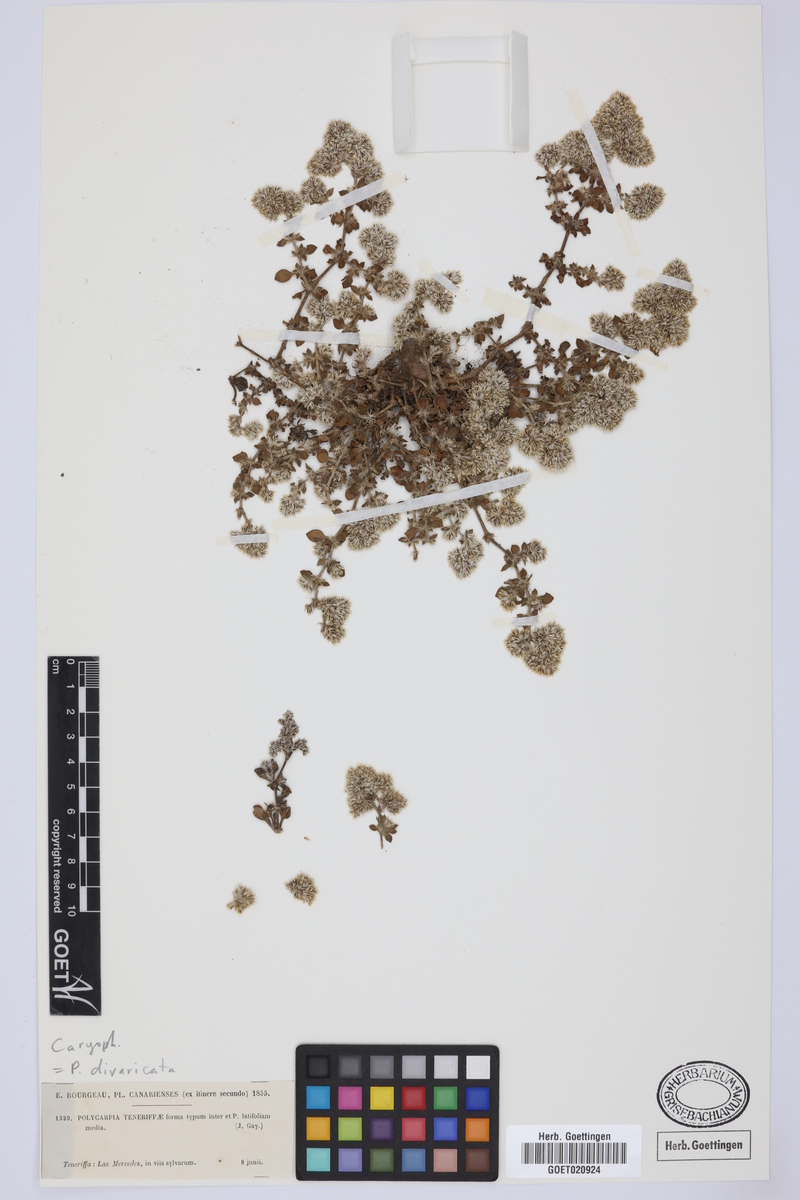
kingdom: Plantae
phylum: Tracheophyta
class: Magnoliopsida
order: Caryophyllales
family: Caryophyllaceae
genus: Polycarpaea
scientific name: Polycarpaea divaricata
